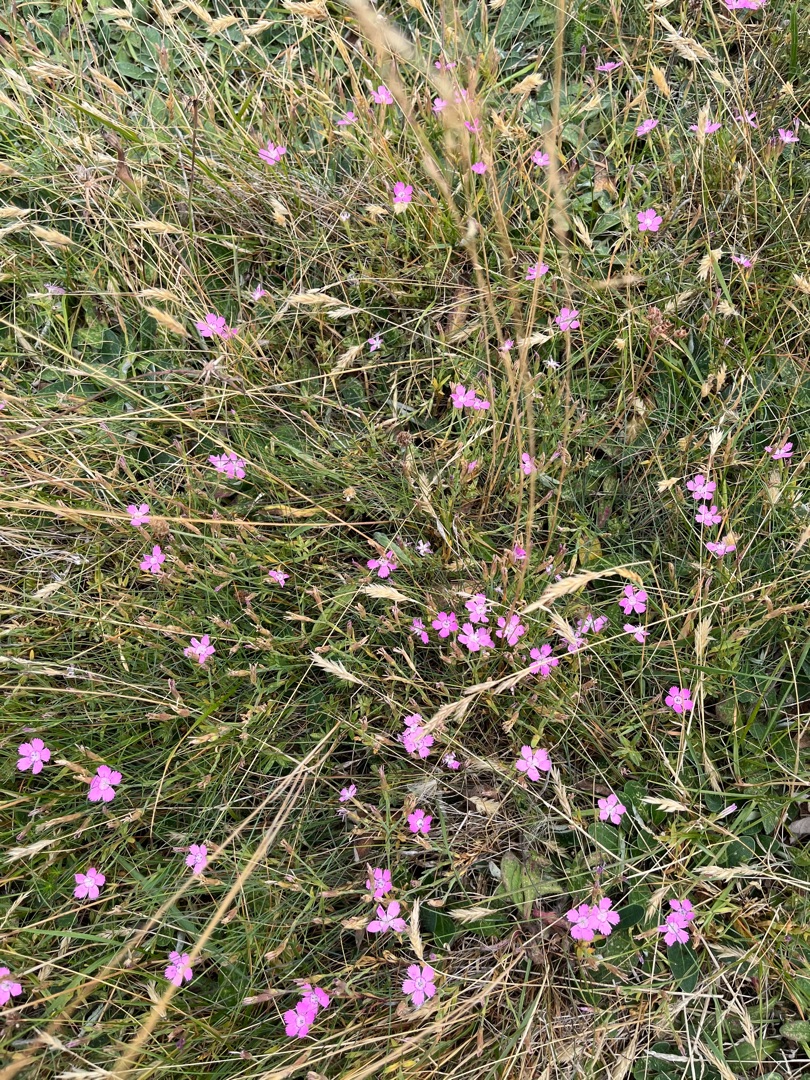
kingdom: Plantae
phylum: Tracheophyta
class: Magnoliopsida
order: Caryophyllales
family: Caryophyllaceae
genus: Dianthus
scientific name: Dianthus deltoides
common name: Bakke-nellike
